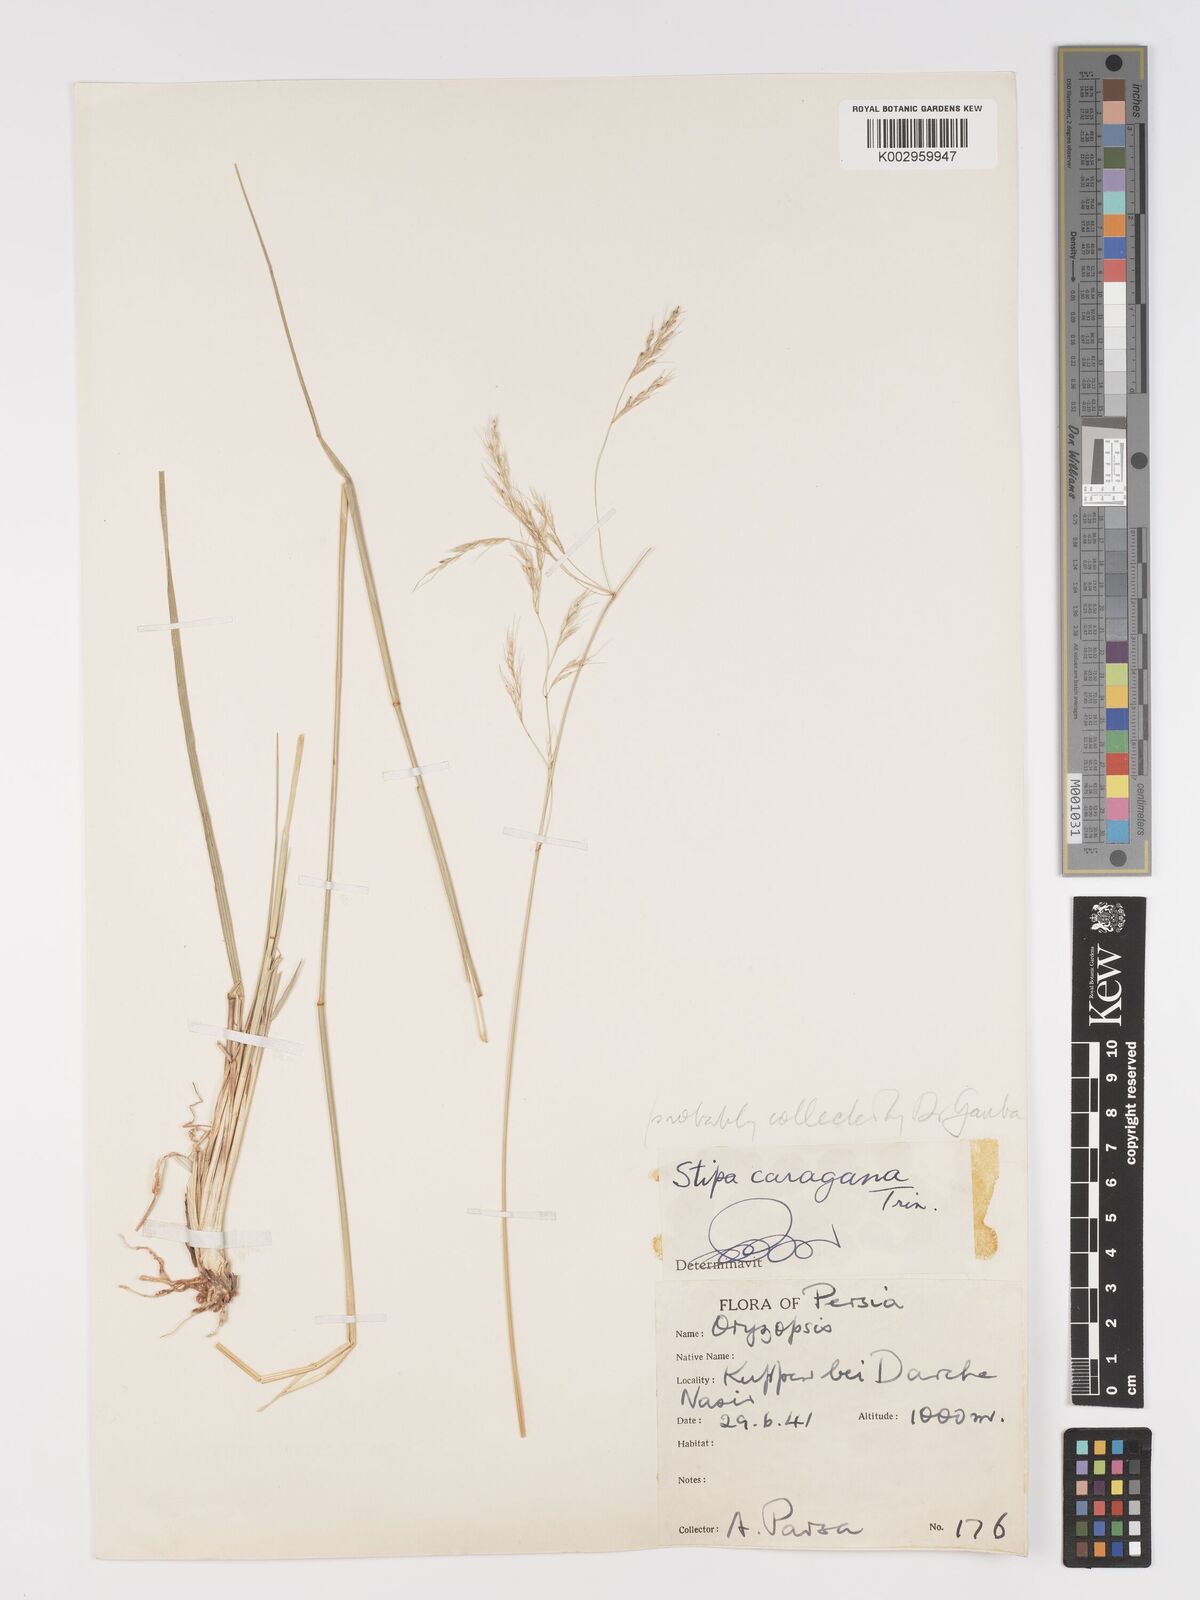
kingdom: Plantae
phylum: Tracheophyta
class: Liliopsida
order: Poales
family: Poaceae
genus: Stipa
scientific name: Stipa conferta
